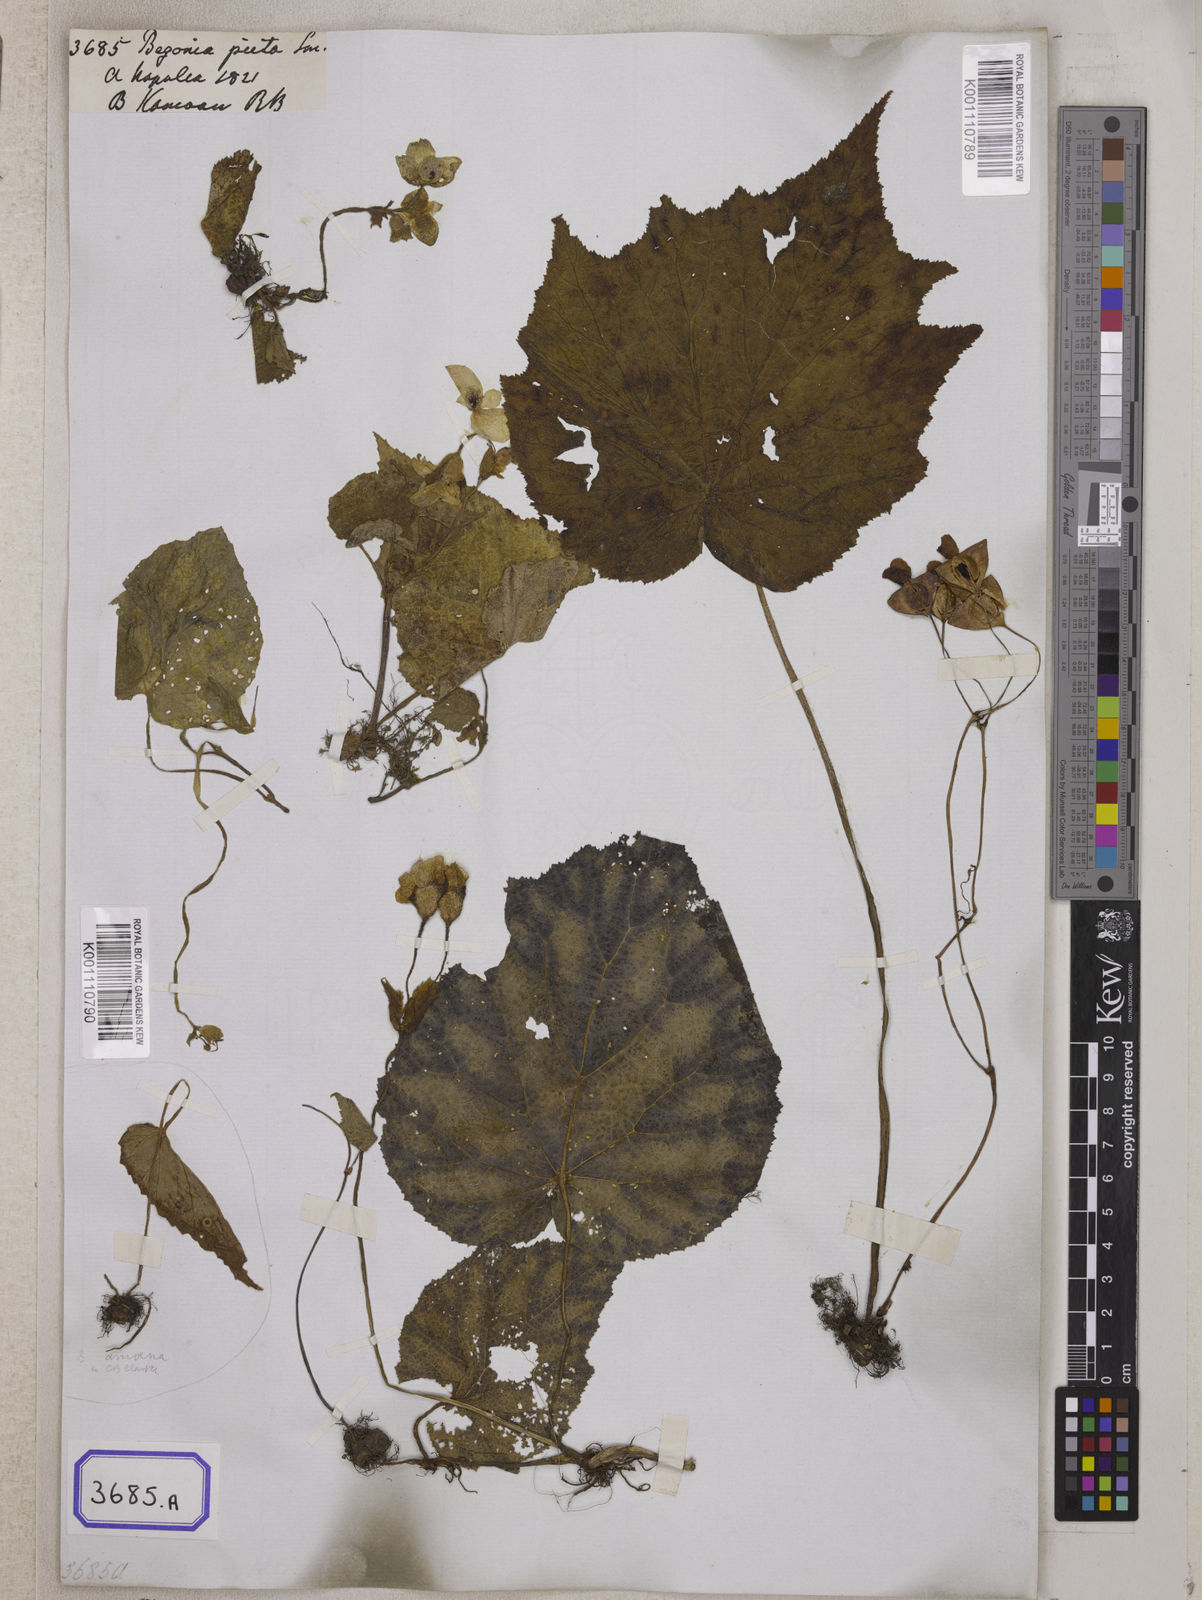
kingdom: Plantae
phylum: Tracheophyta
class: Magnoliopsida
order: Cucurbitales
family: Begoniaceae
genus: Begonia
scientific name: Begonia picta
